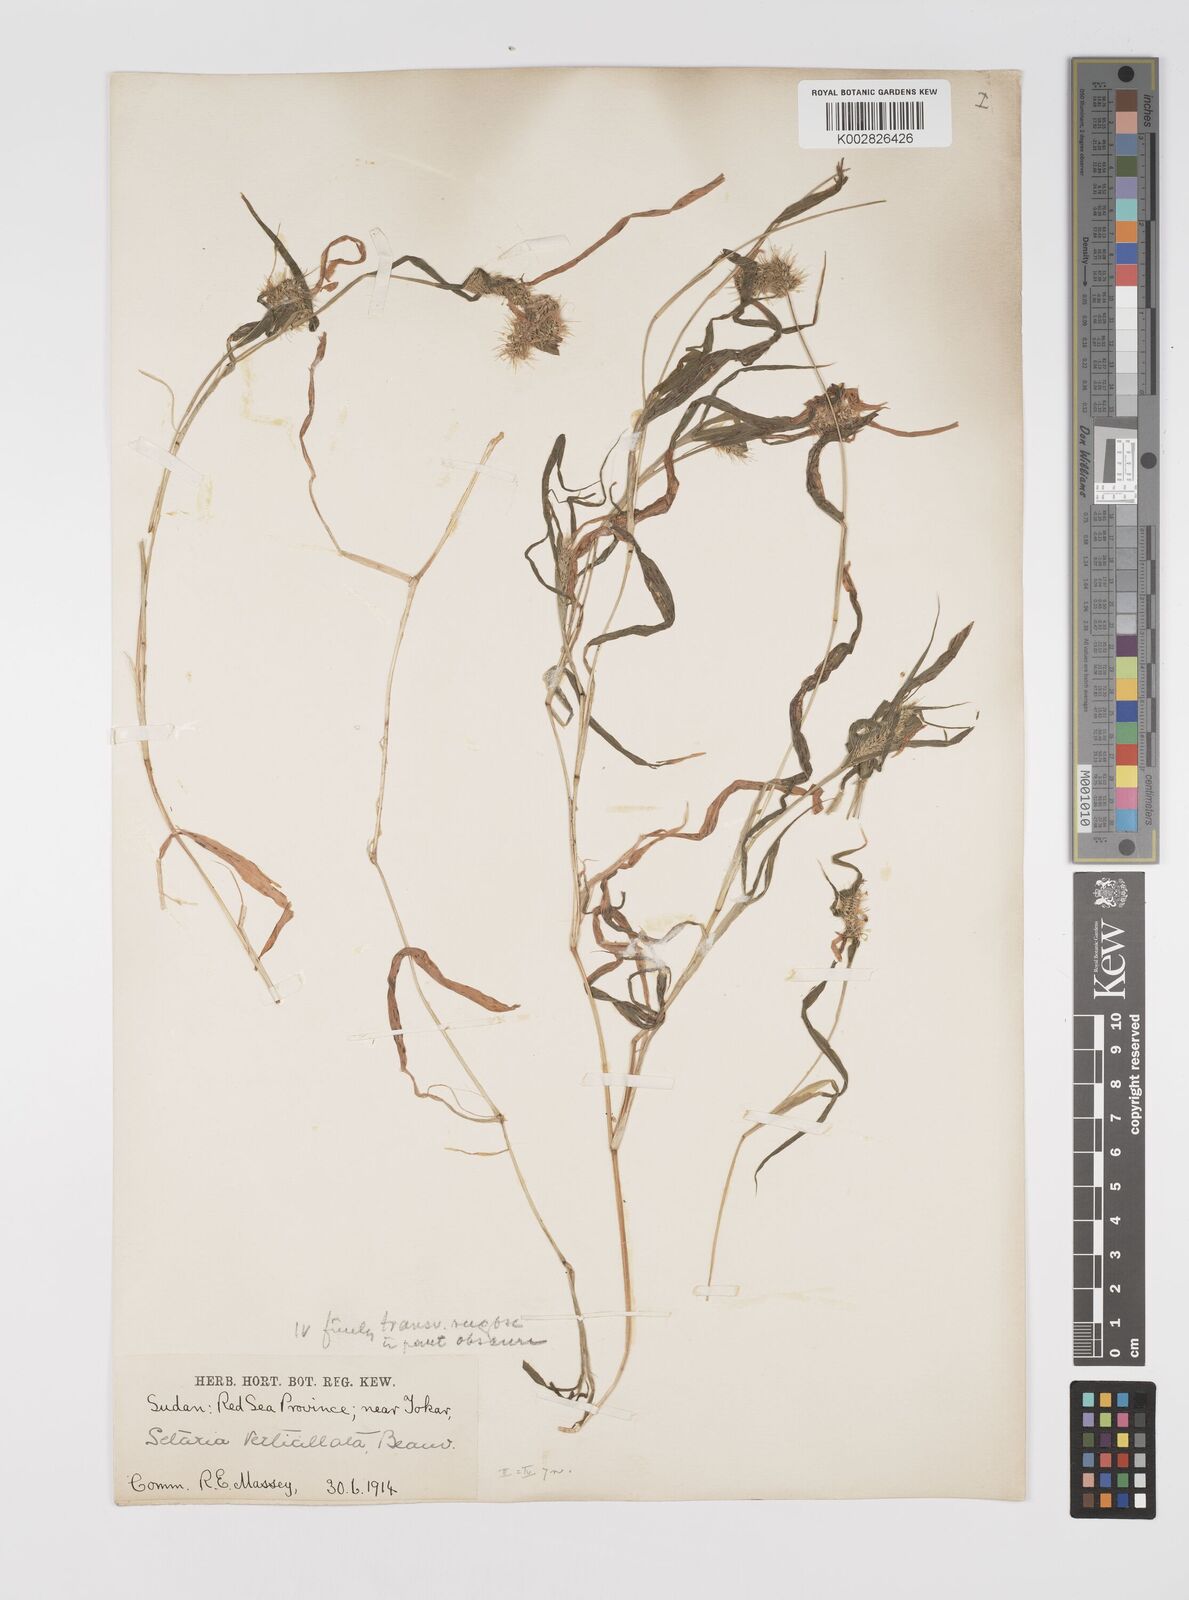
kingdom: Plantae
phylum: Tracheophyta
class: Liliopsida
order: Poales
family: Poaceae
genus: Setaria
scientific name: Setaria verticillata
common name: Hooked bristlegrass
